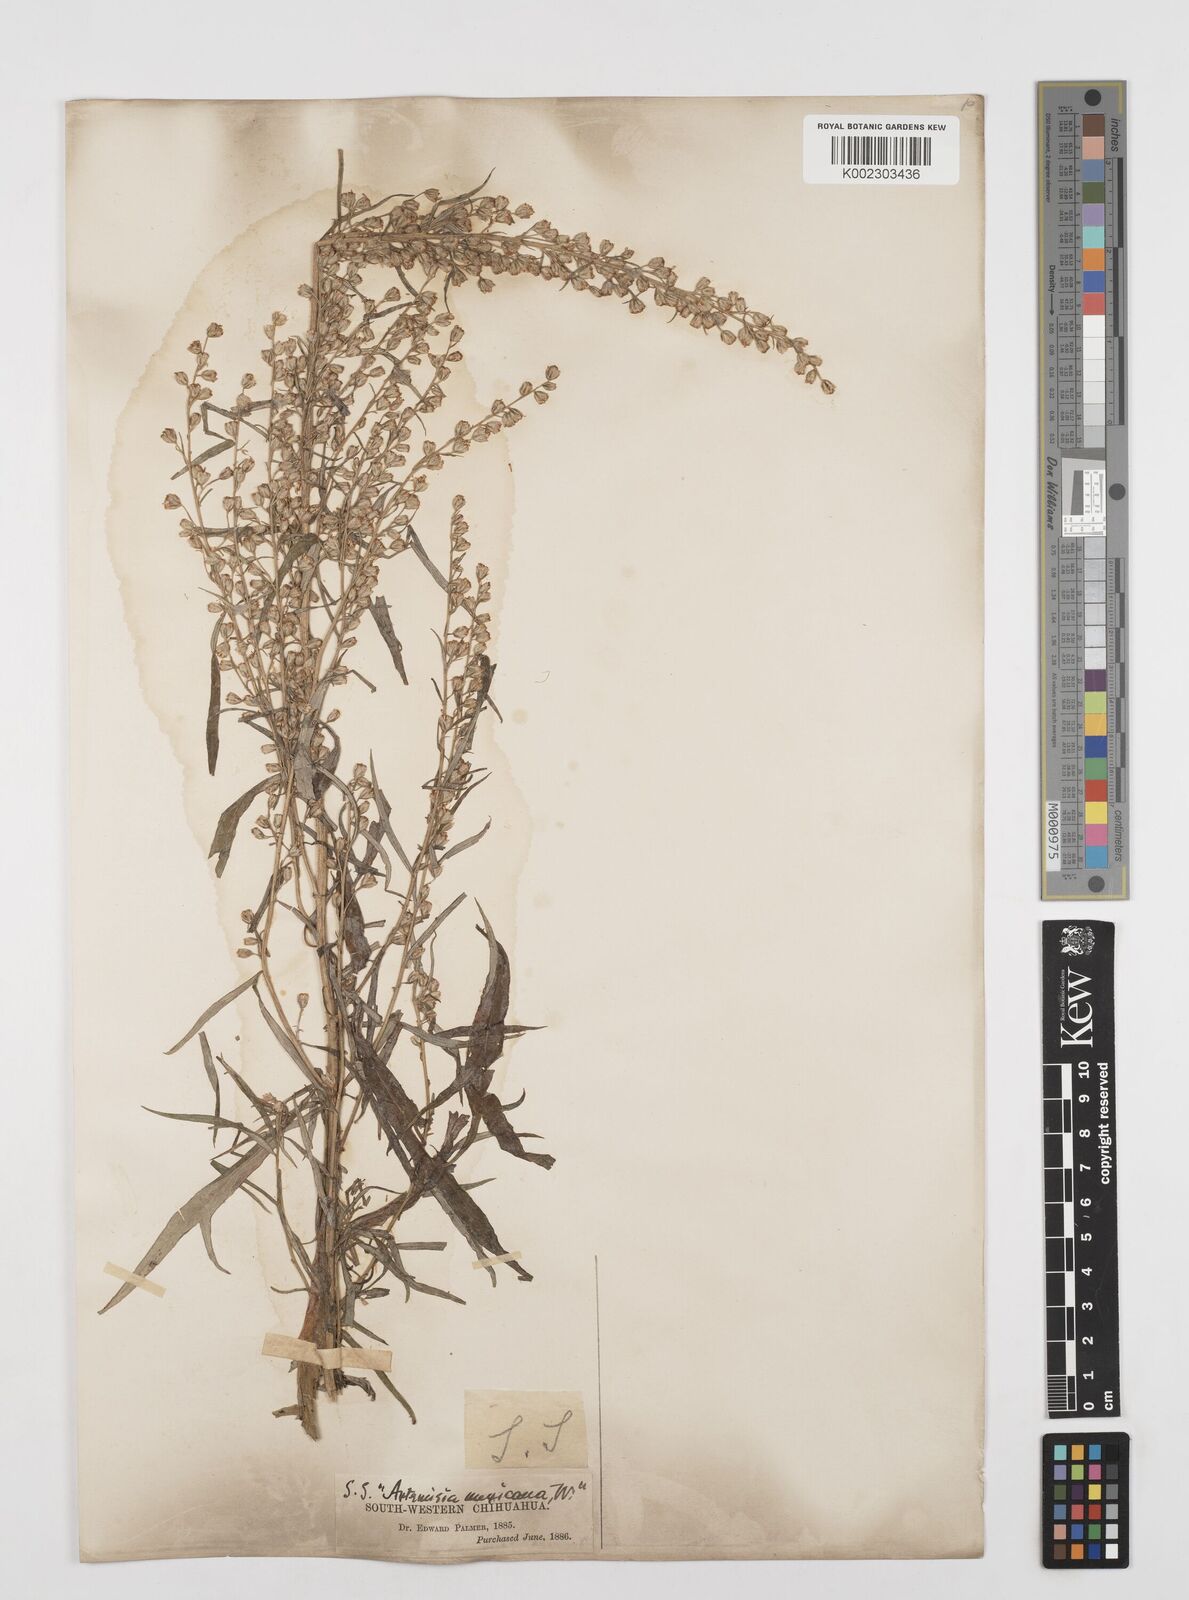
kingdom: Plantae
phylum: Tracheophyta
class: Magnoliopsida
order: Asterales
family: Asteraceae
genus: Artemisia
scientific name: Artemisia ludoviciana
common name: Western mugwort
